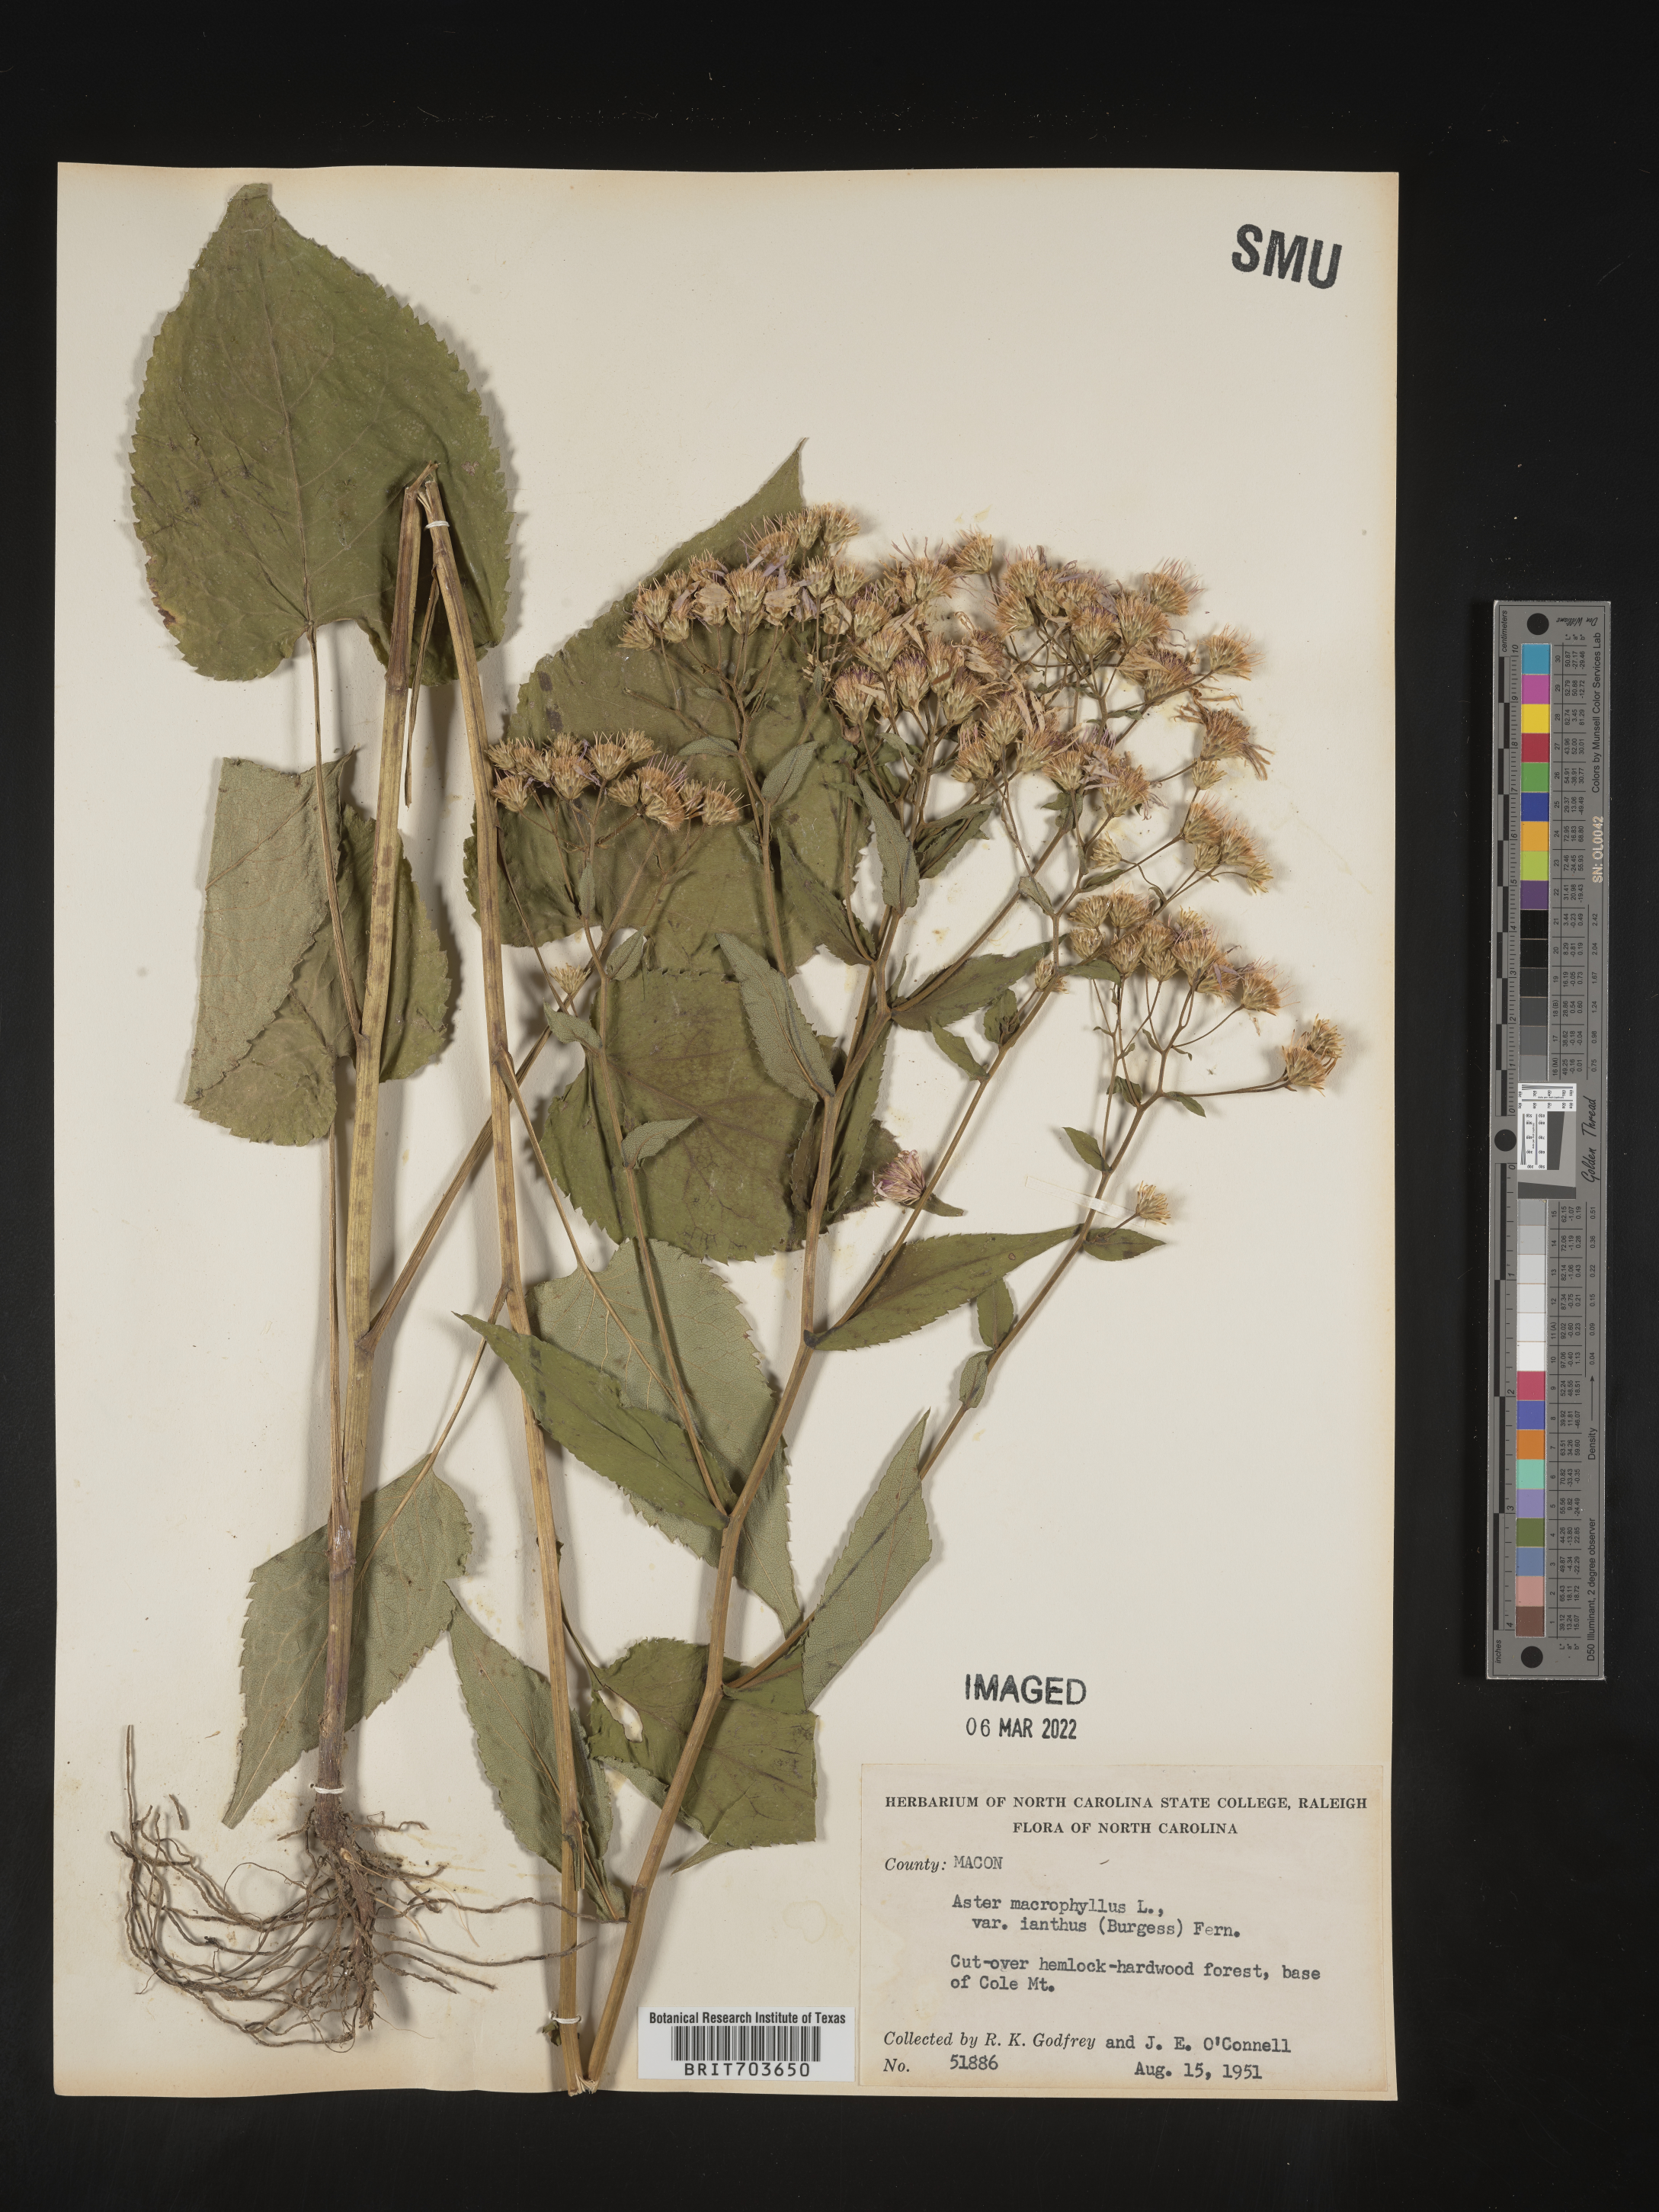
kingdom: Plantae
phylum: Tracheophyta
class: Magnoliopsida
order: Asterales
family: Asteraceae
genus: Eurybia
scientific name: Eurybia macrophylla
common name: Big-leaved aster
